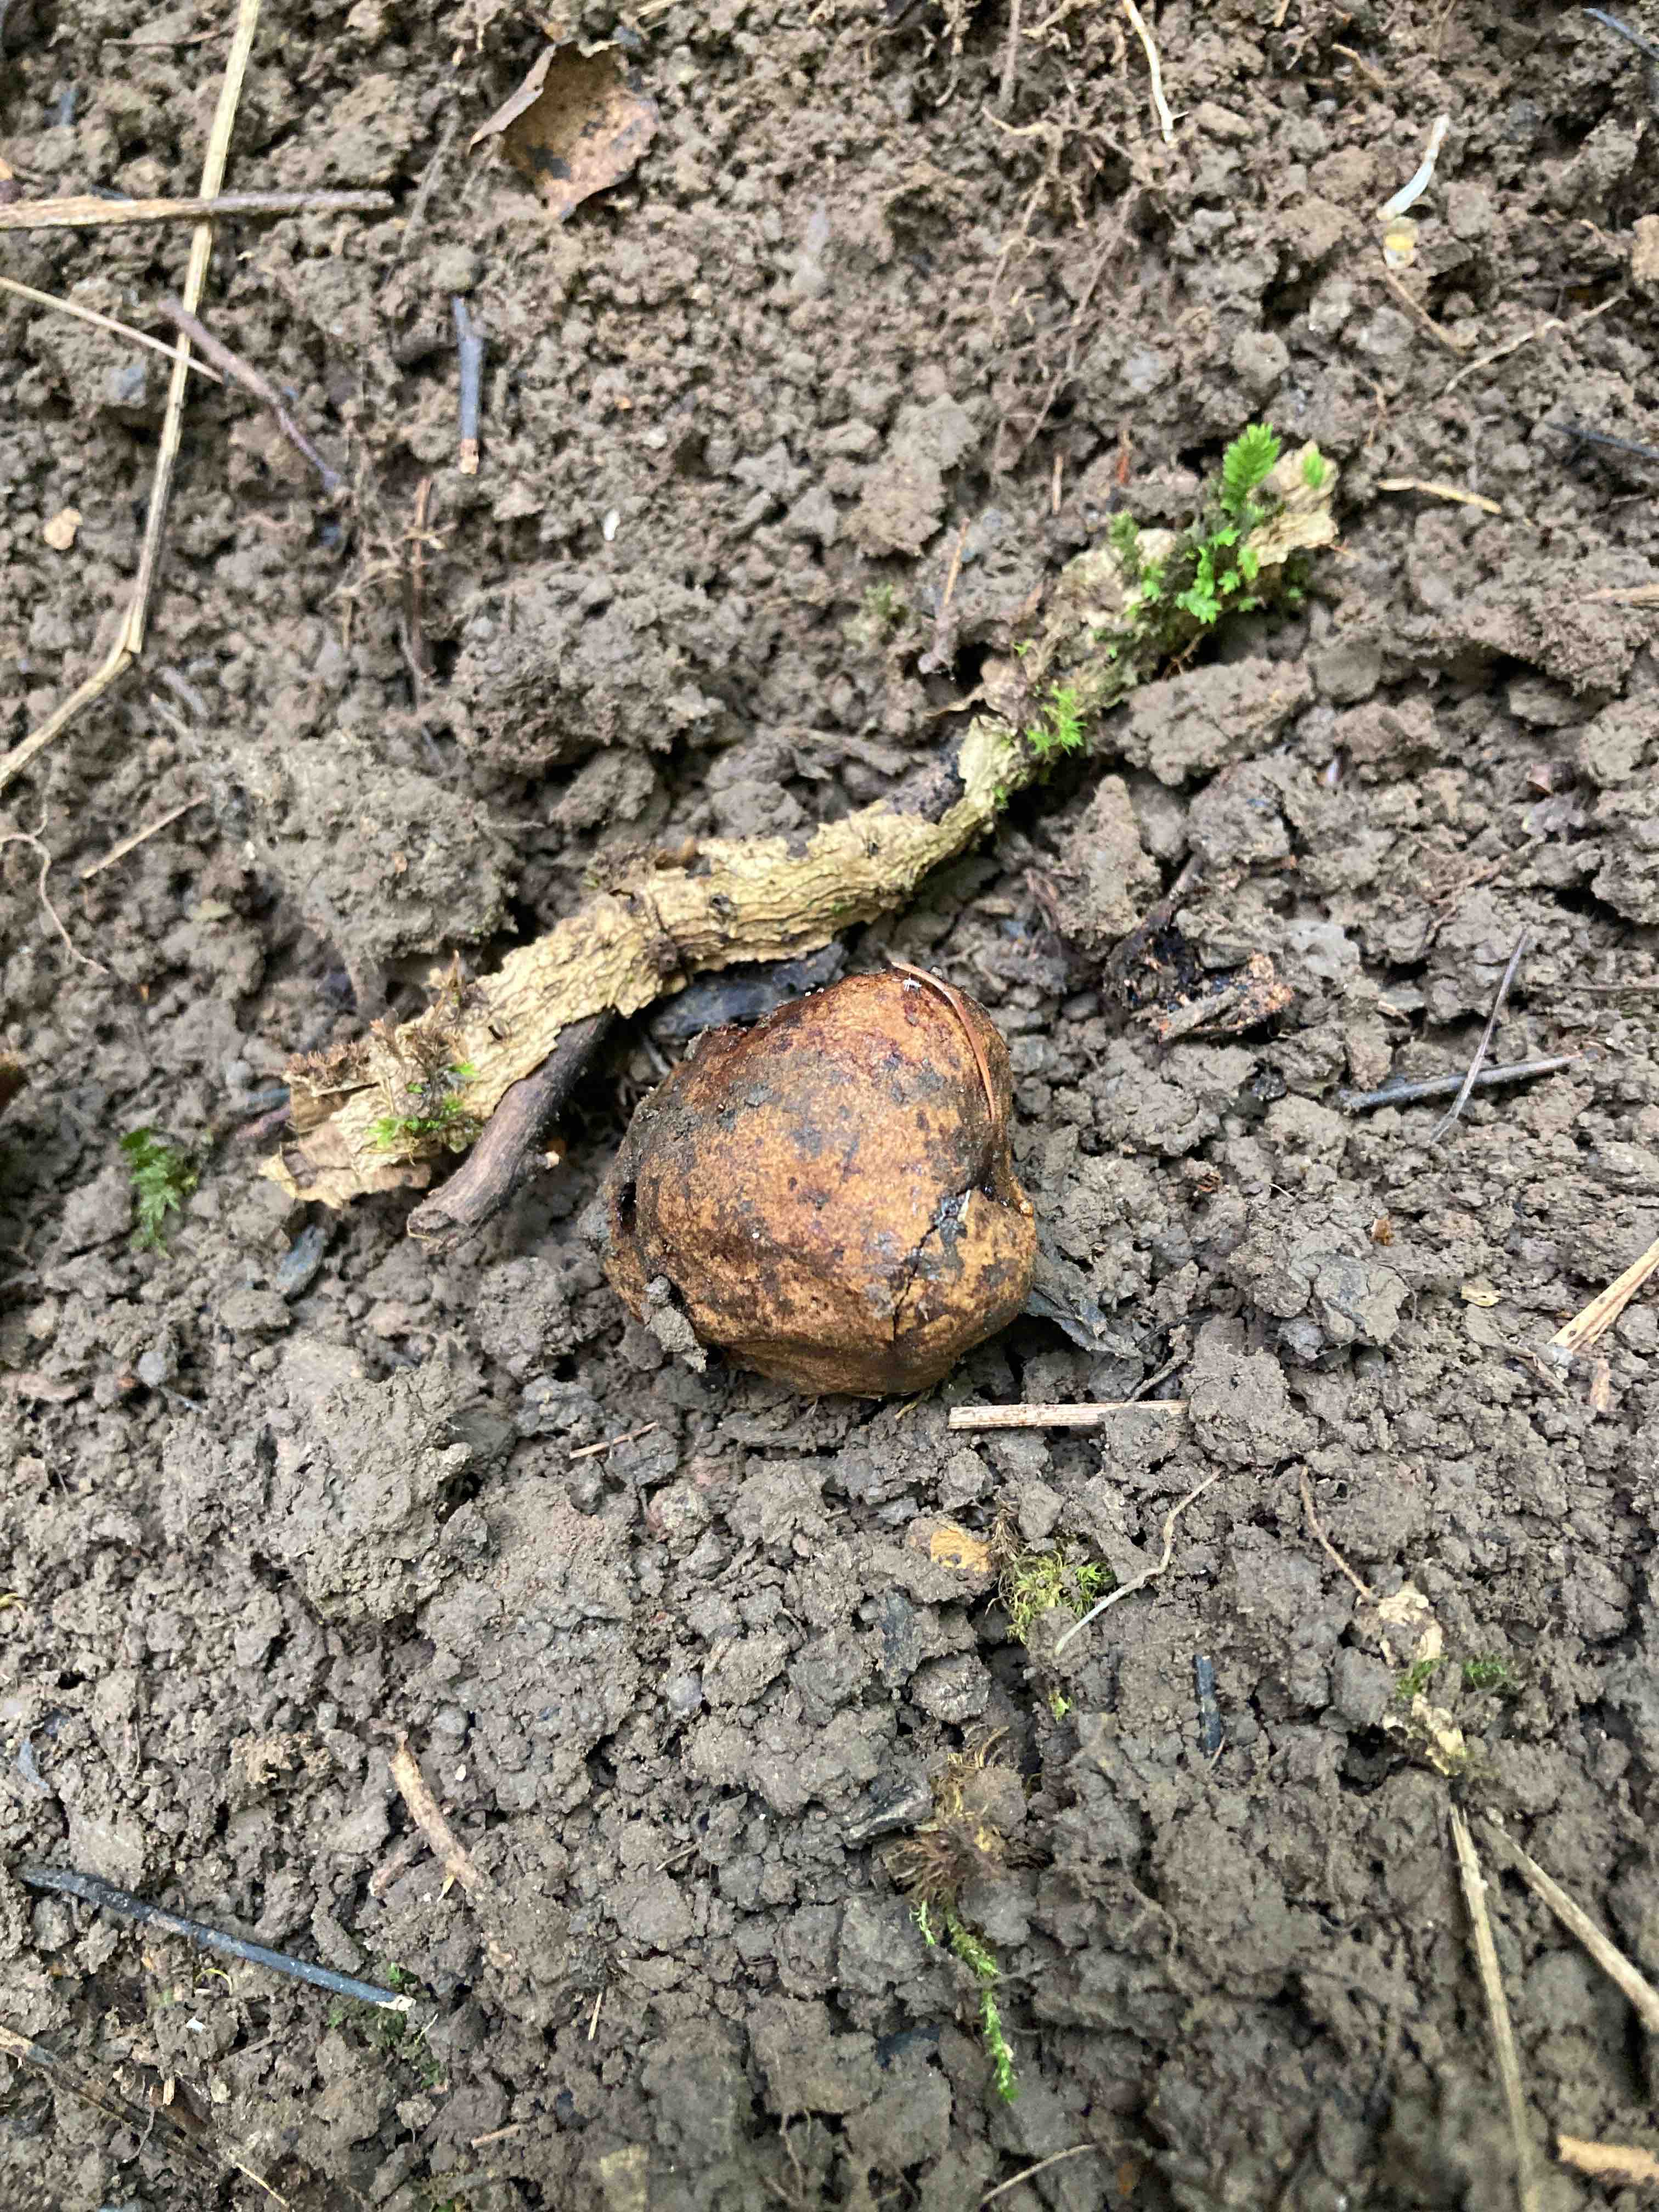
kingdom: Fungi
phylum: Basidiomycota
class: Agaricomycetes
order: Boletales
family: Paxillaceae
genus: Melanogaster
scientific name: Melanogaster broomeanus
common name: broget slimtrøffel
